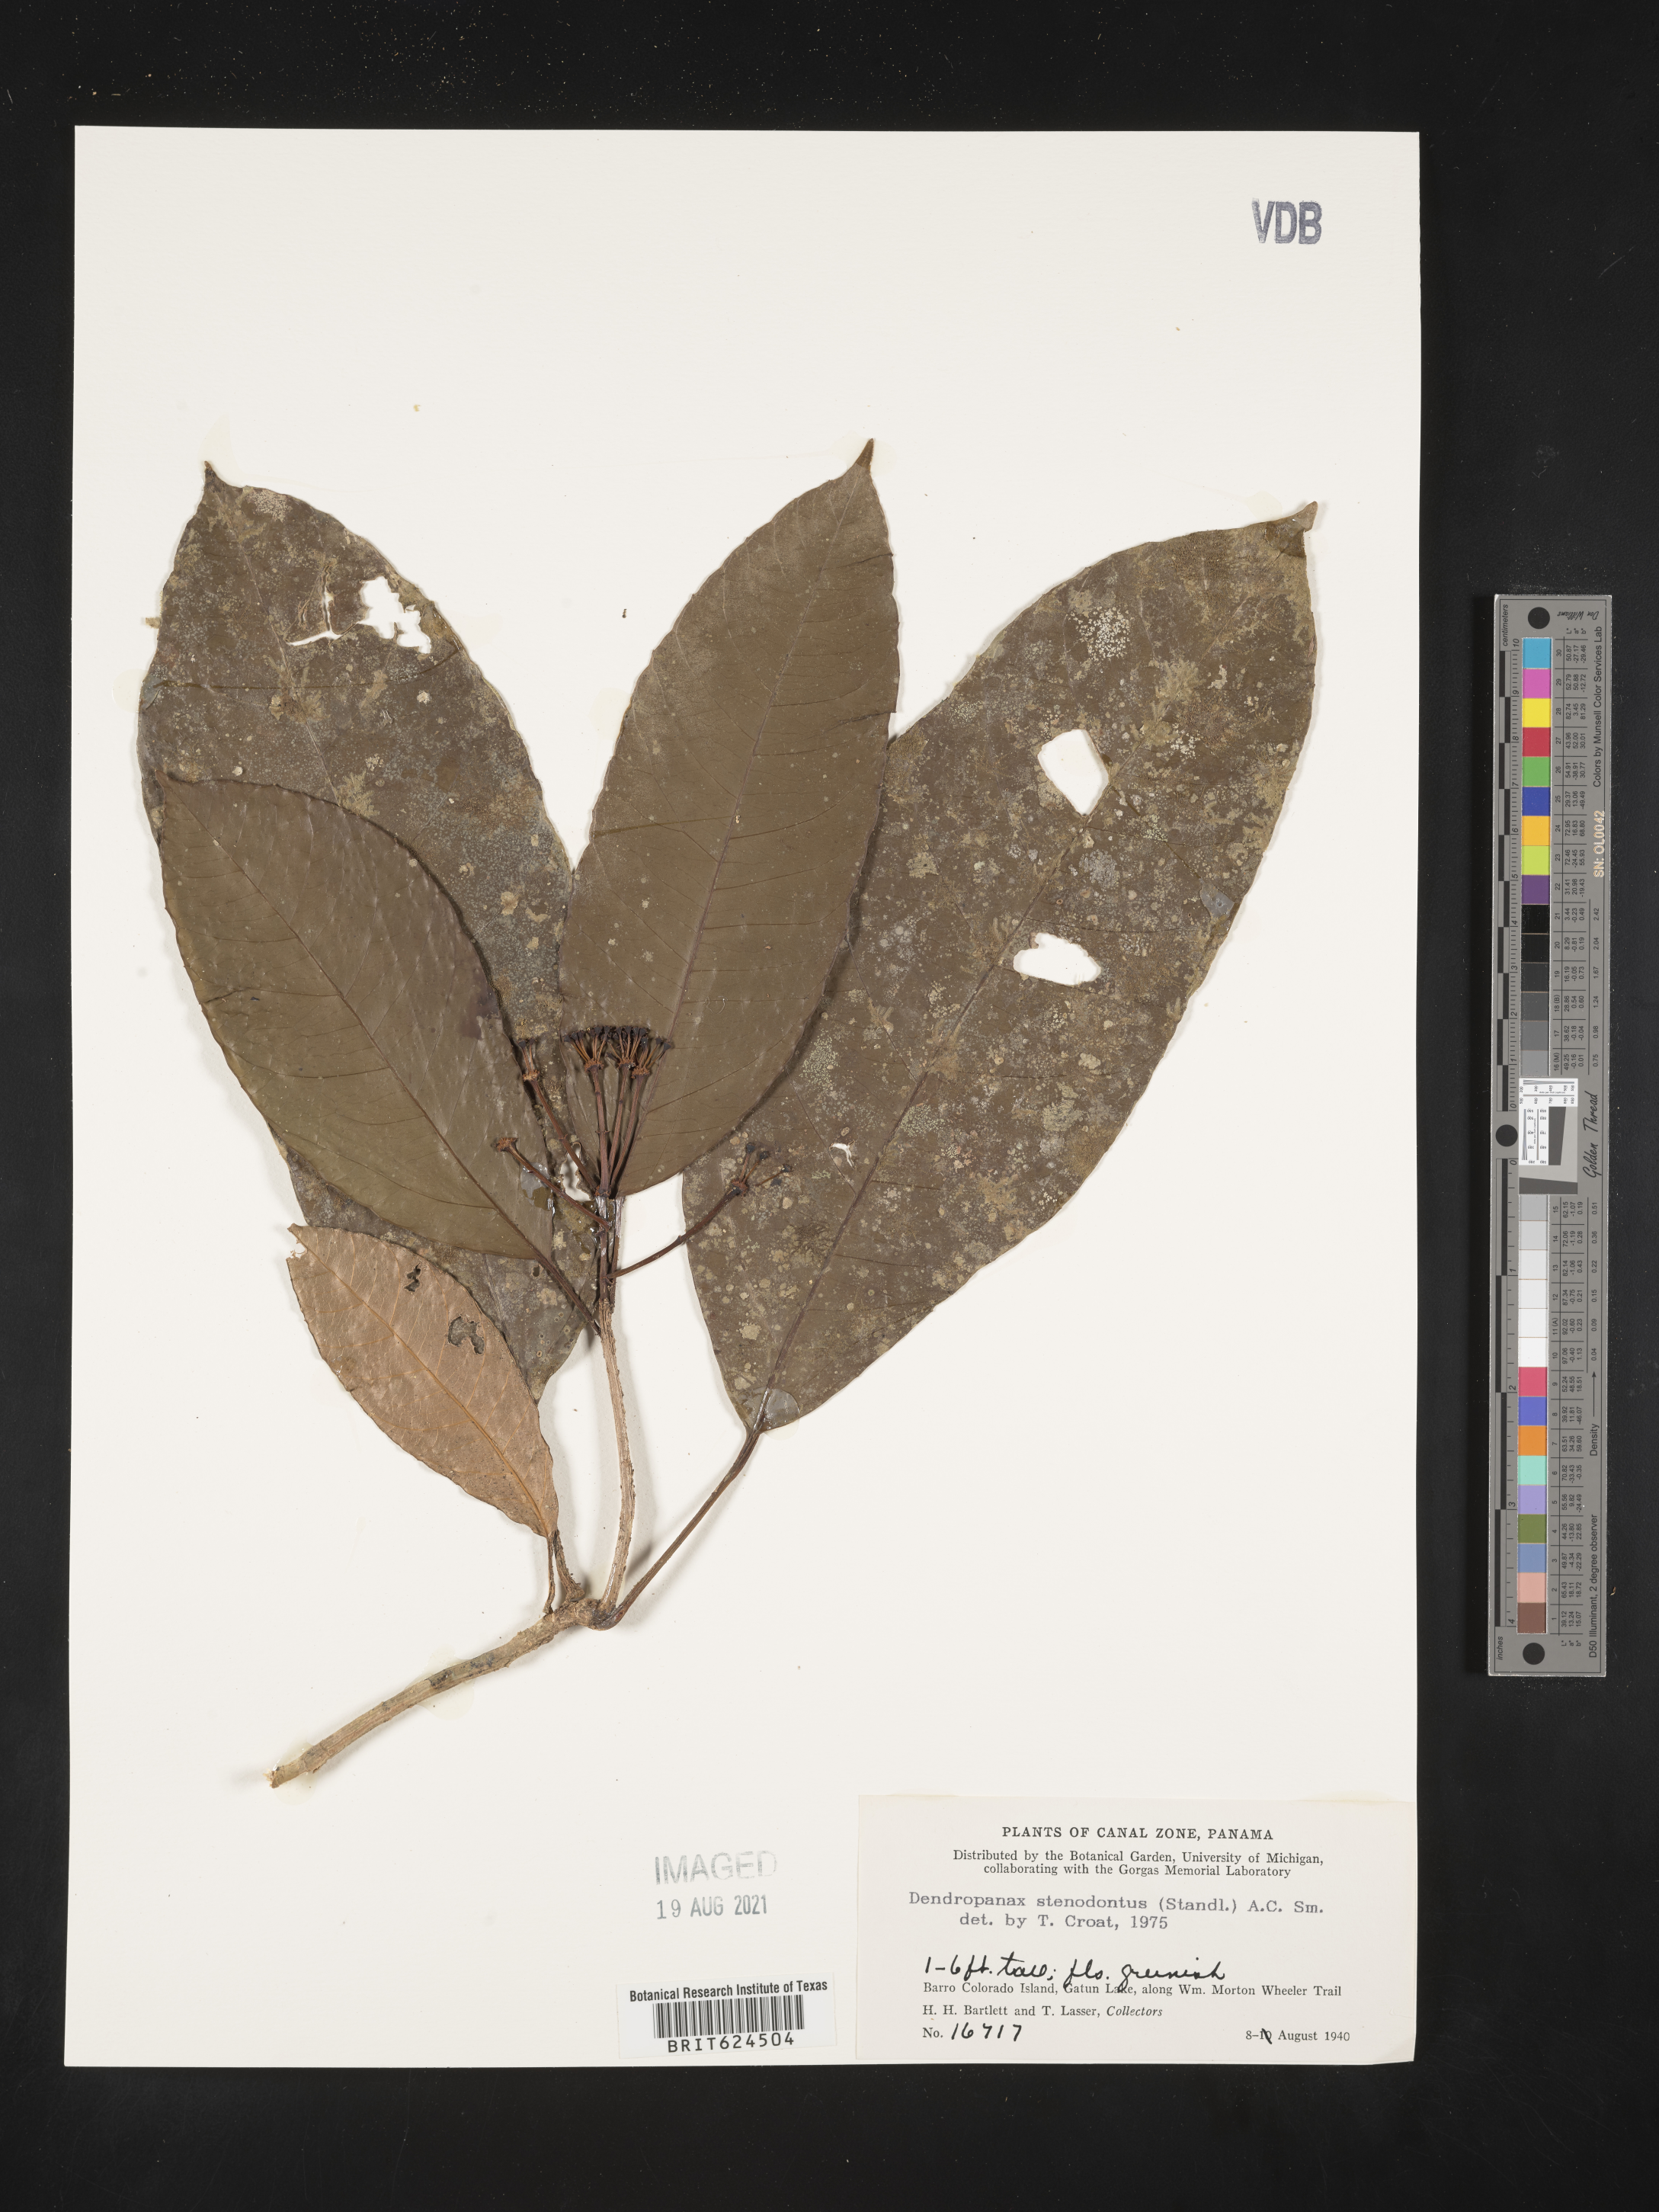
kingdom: Plantae
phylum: Tracheophyta
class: Magnoliopsida
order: Apiales
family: Araliaceae
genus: Dendropanax
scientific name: Dendropanax alaris
